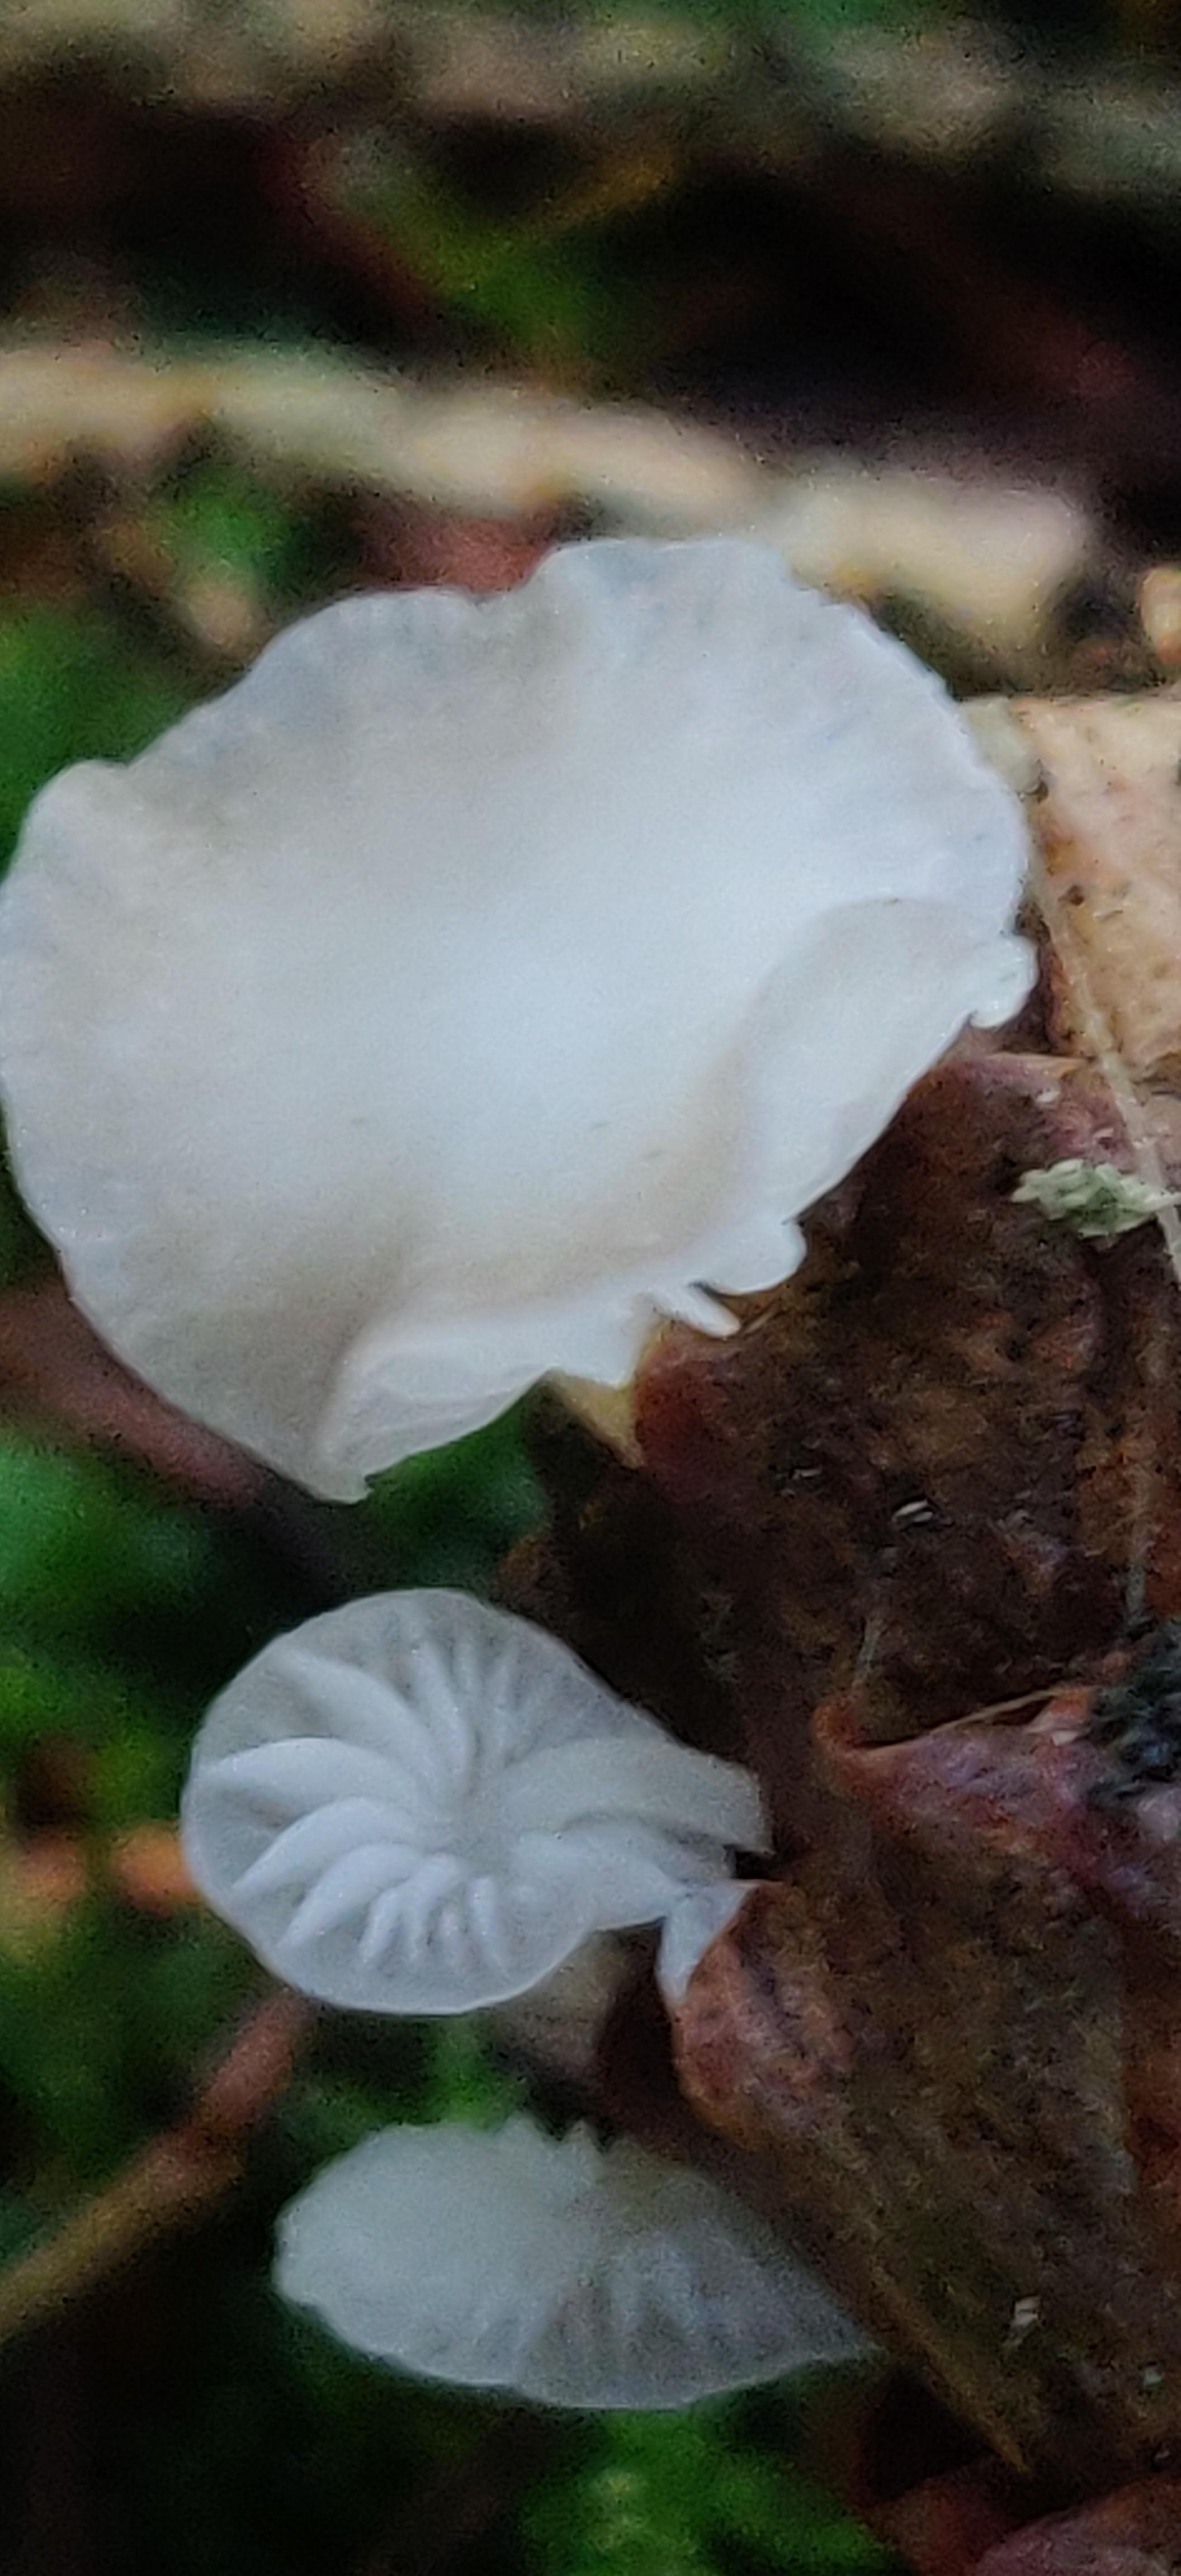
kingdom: Fungi
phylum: Basidiomycota
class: Agaricomycetes
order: Agaricales
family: Mycenaceae
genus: Hemimycena
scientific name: Hemimycena
